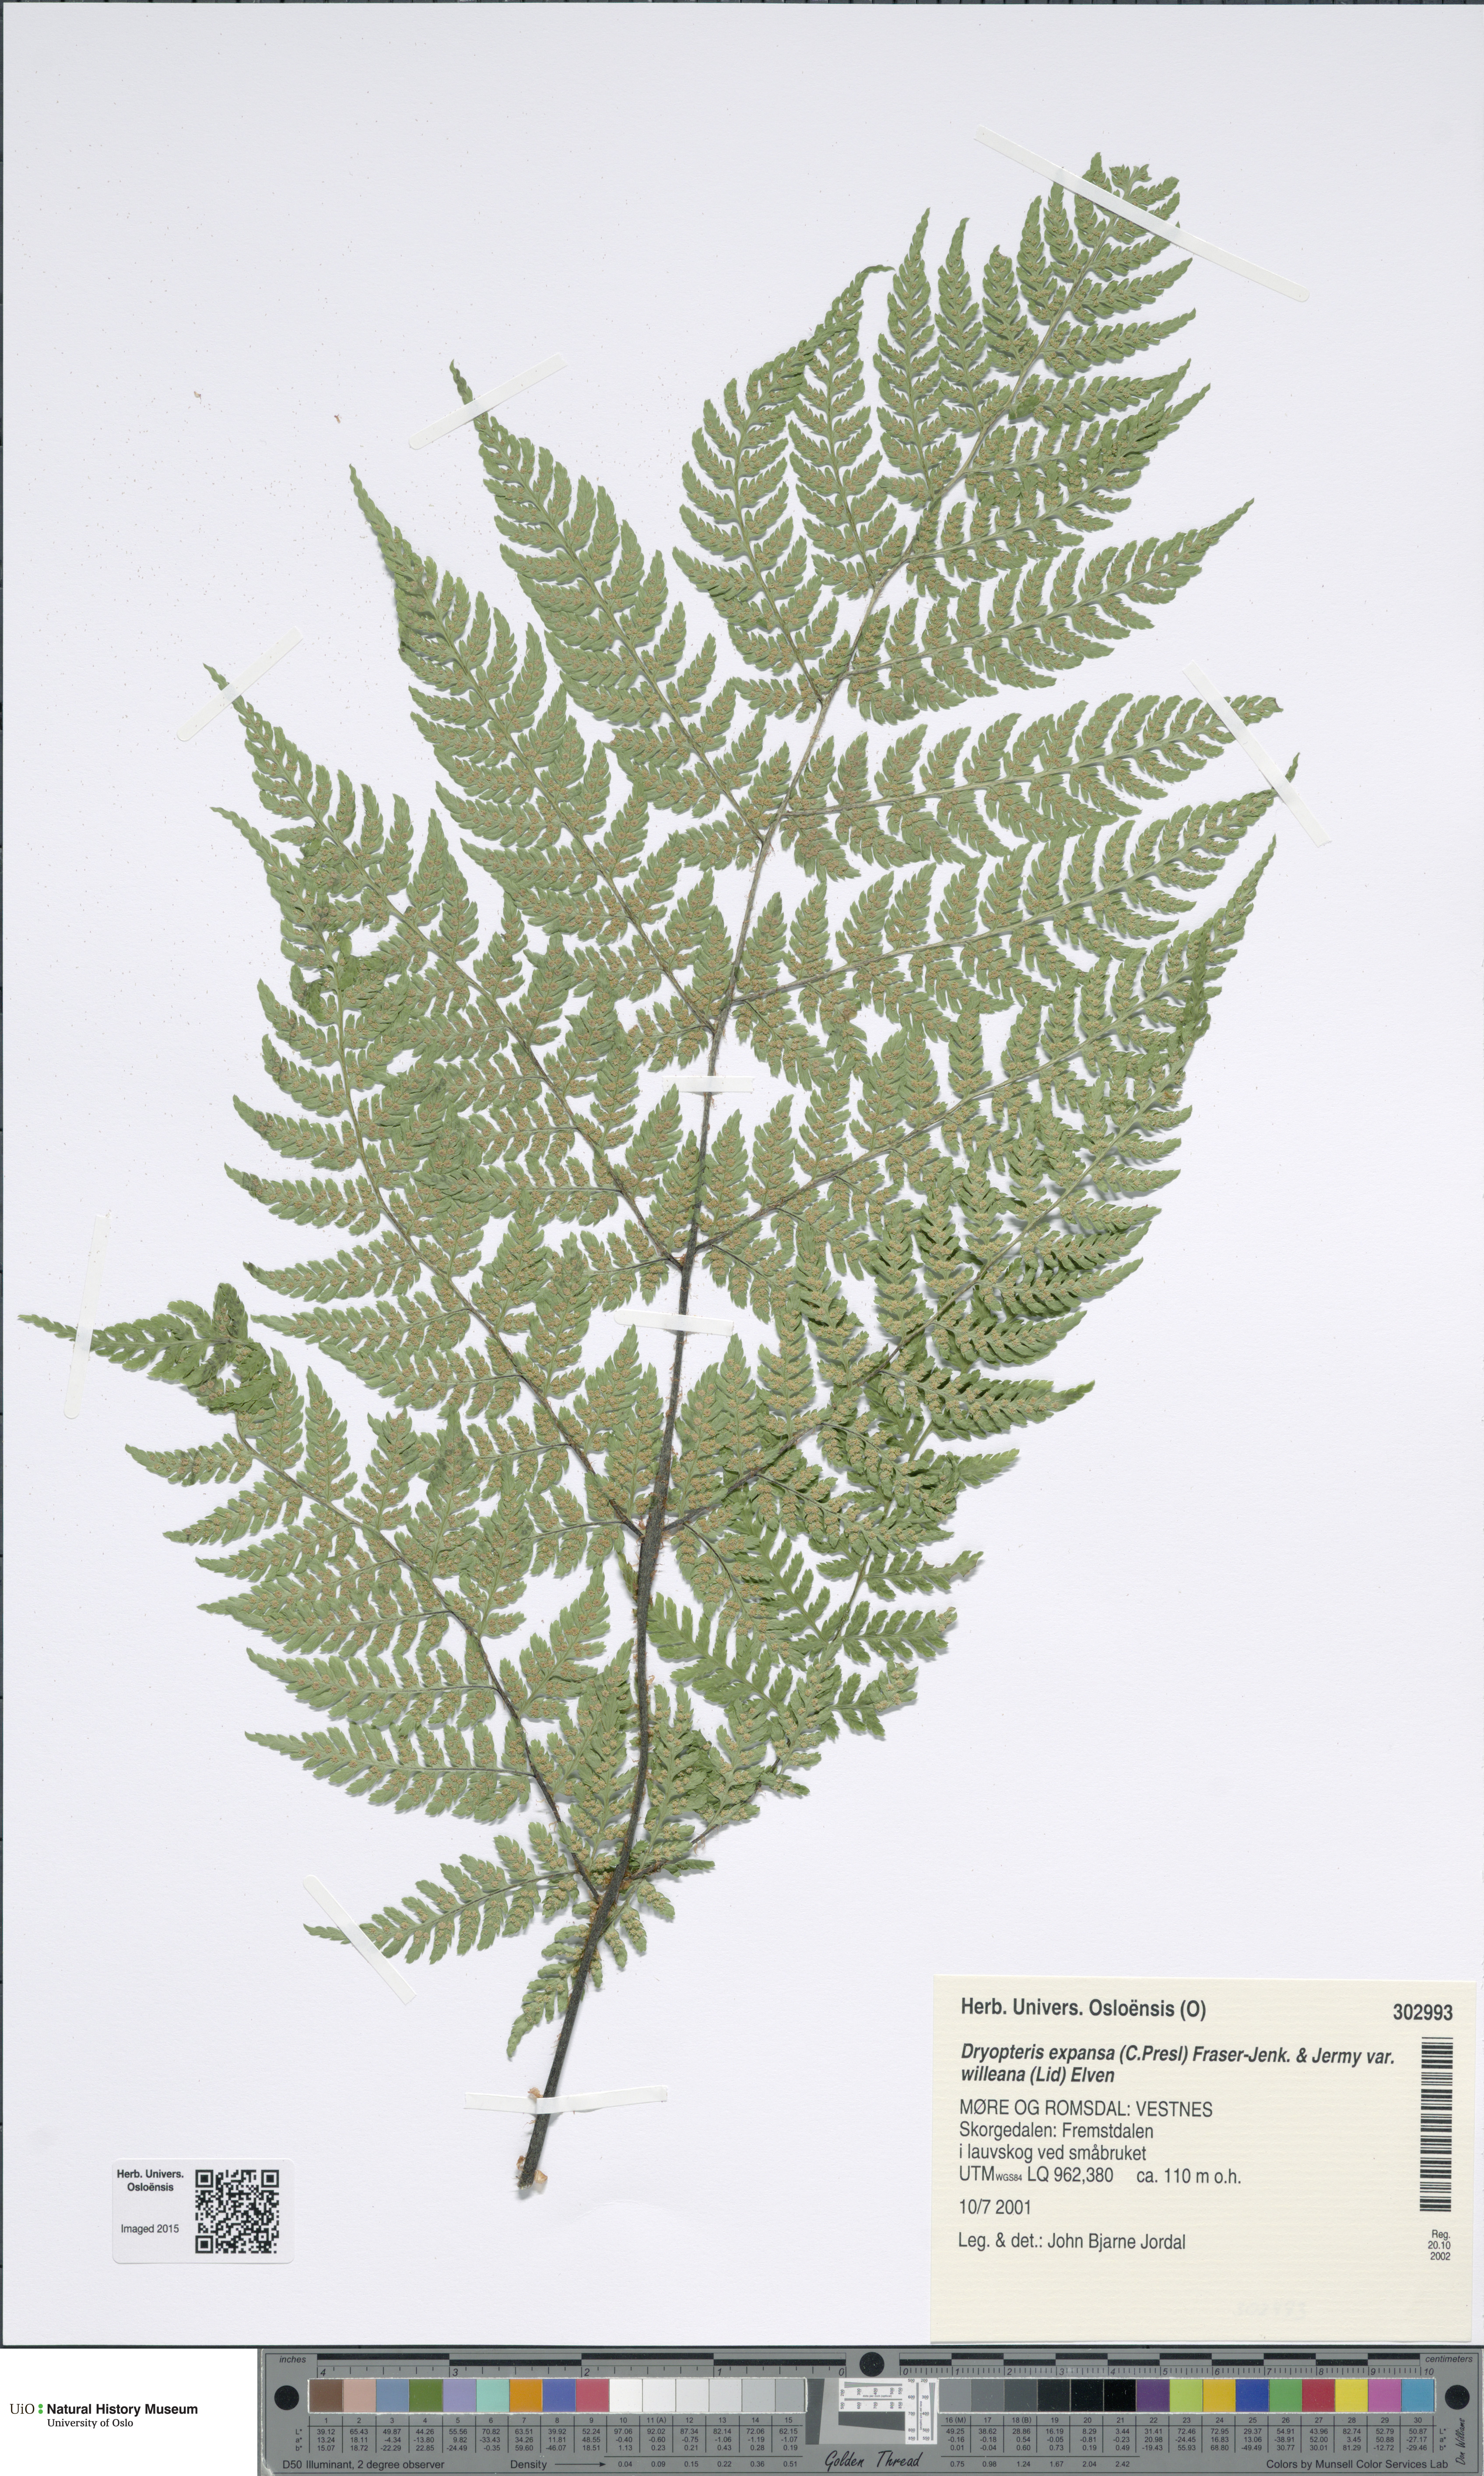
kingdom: Plantae
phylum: Tracheophyta
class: Polypodiopsida
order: Polypodiales
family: Dryopteridaceae
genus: Dryopteris
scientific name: Dryopteris expansa
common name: Northern buckler fern
